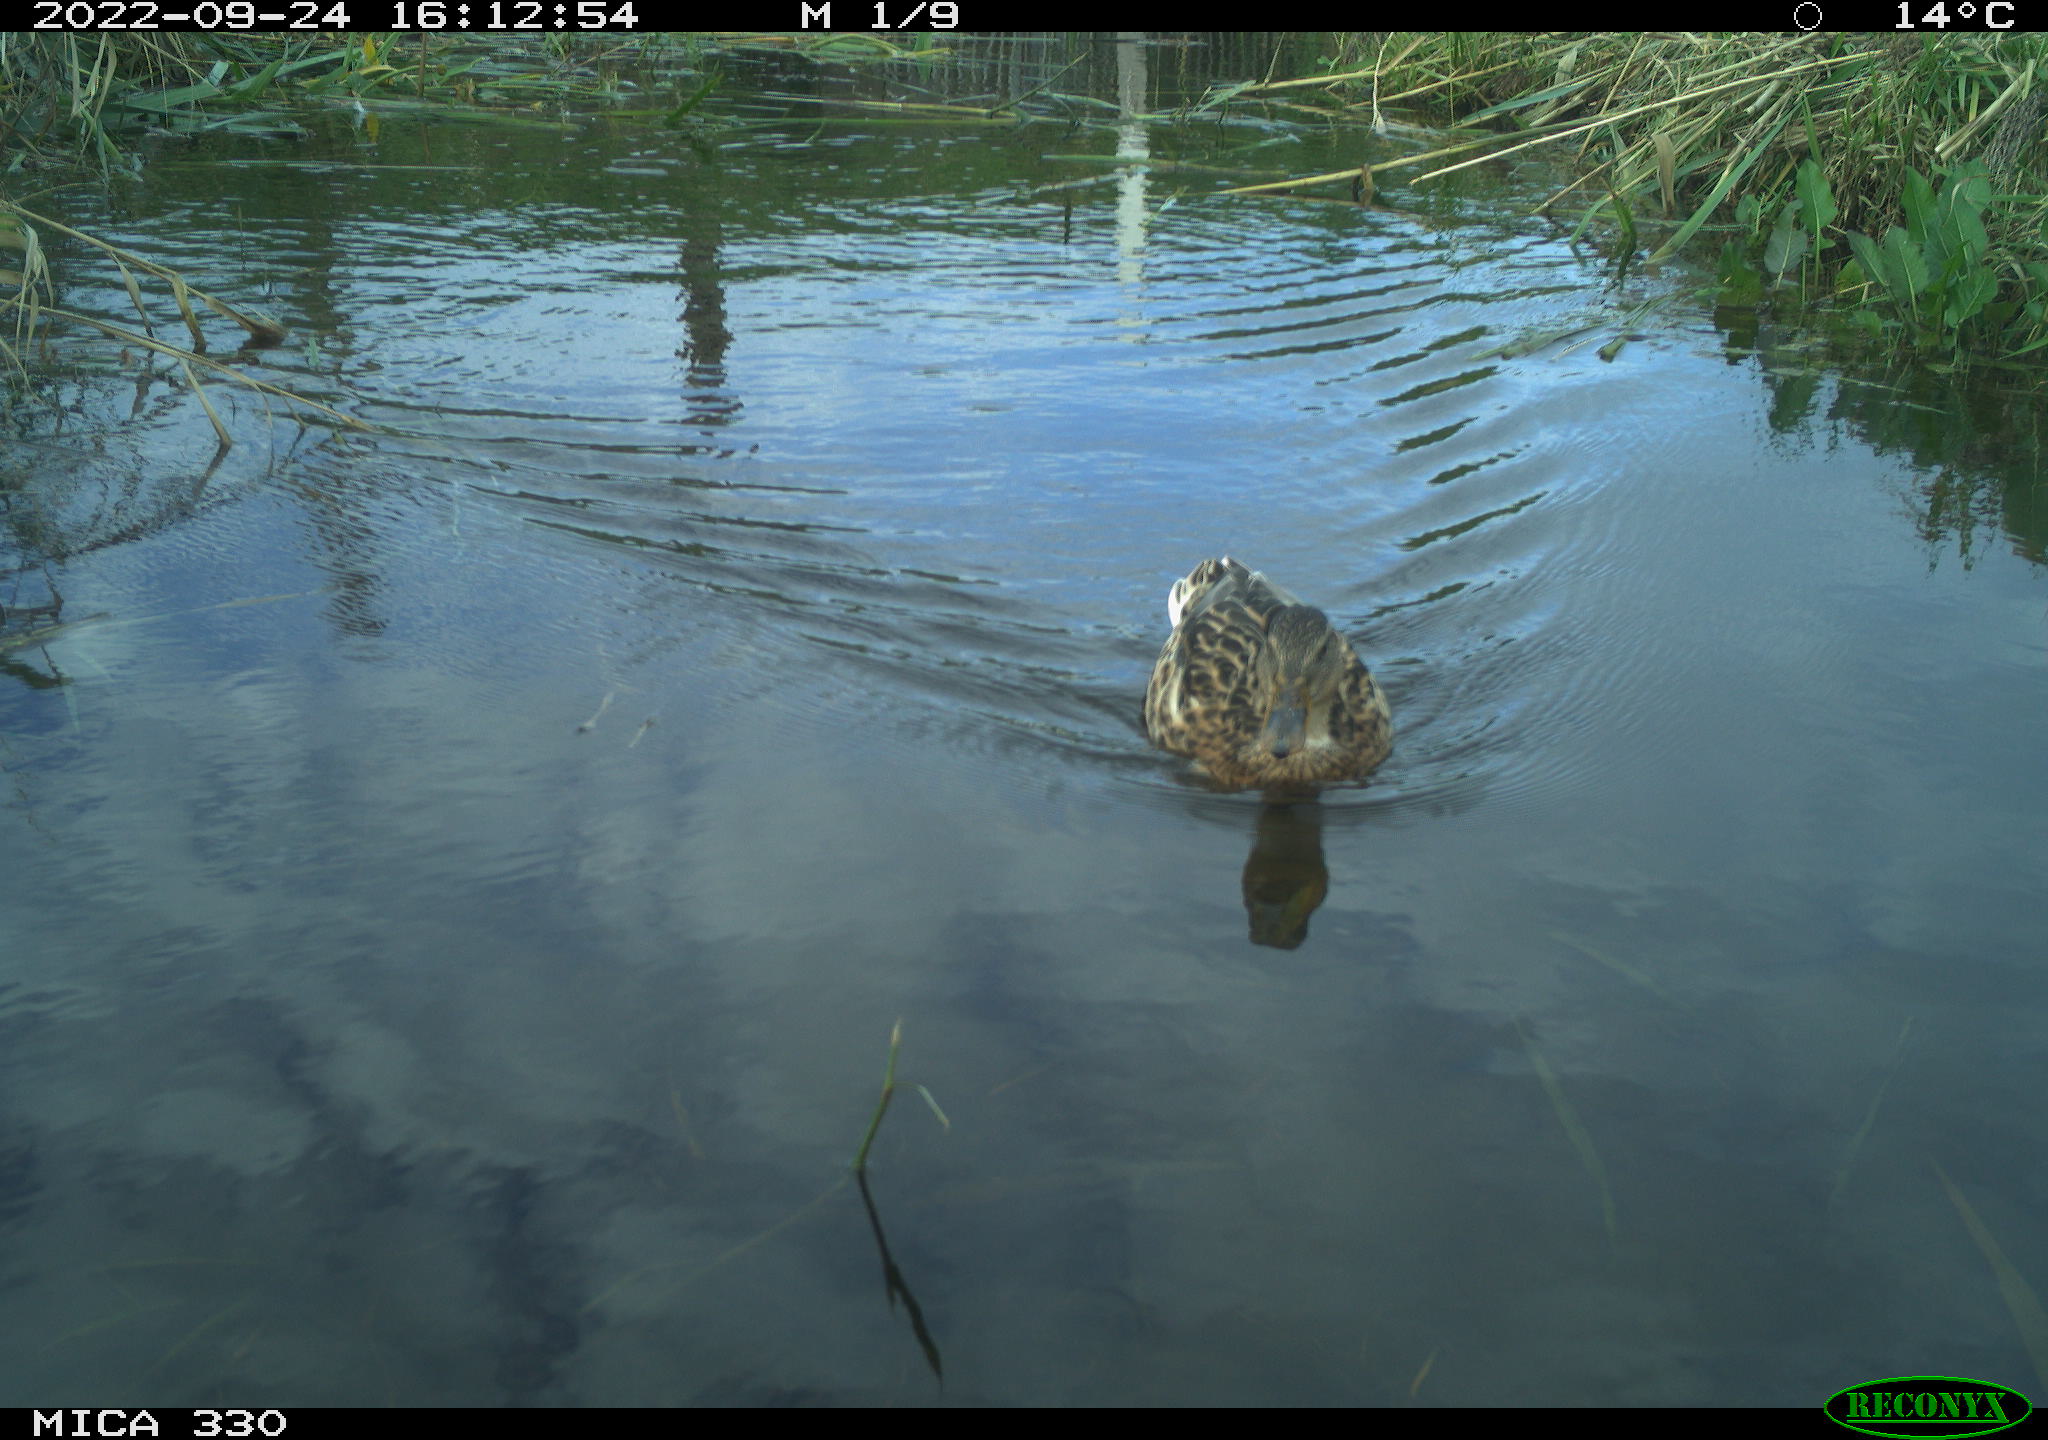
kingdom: Animalia
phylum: Chordata
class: Aves
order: Anseriformes
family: Anatidae
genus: Anas
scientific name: Anas platyrhynchos
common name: Mallard
